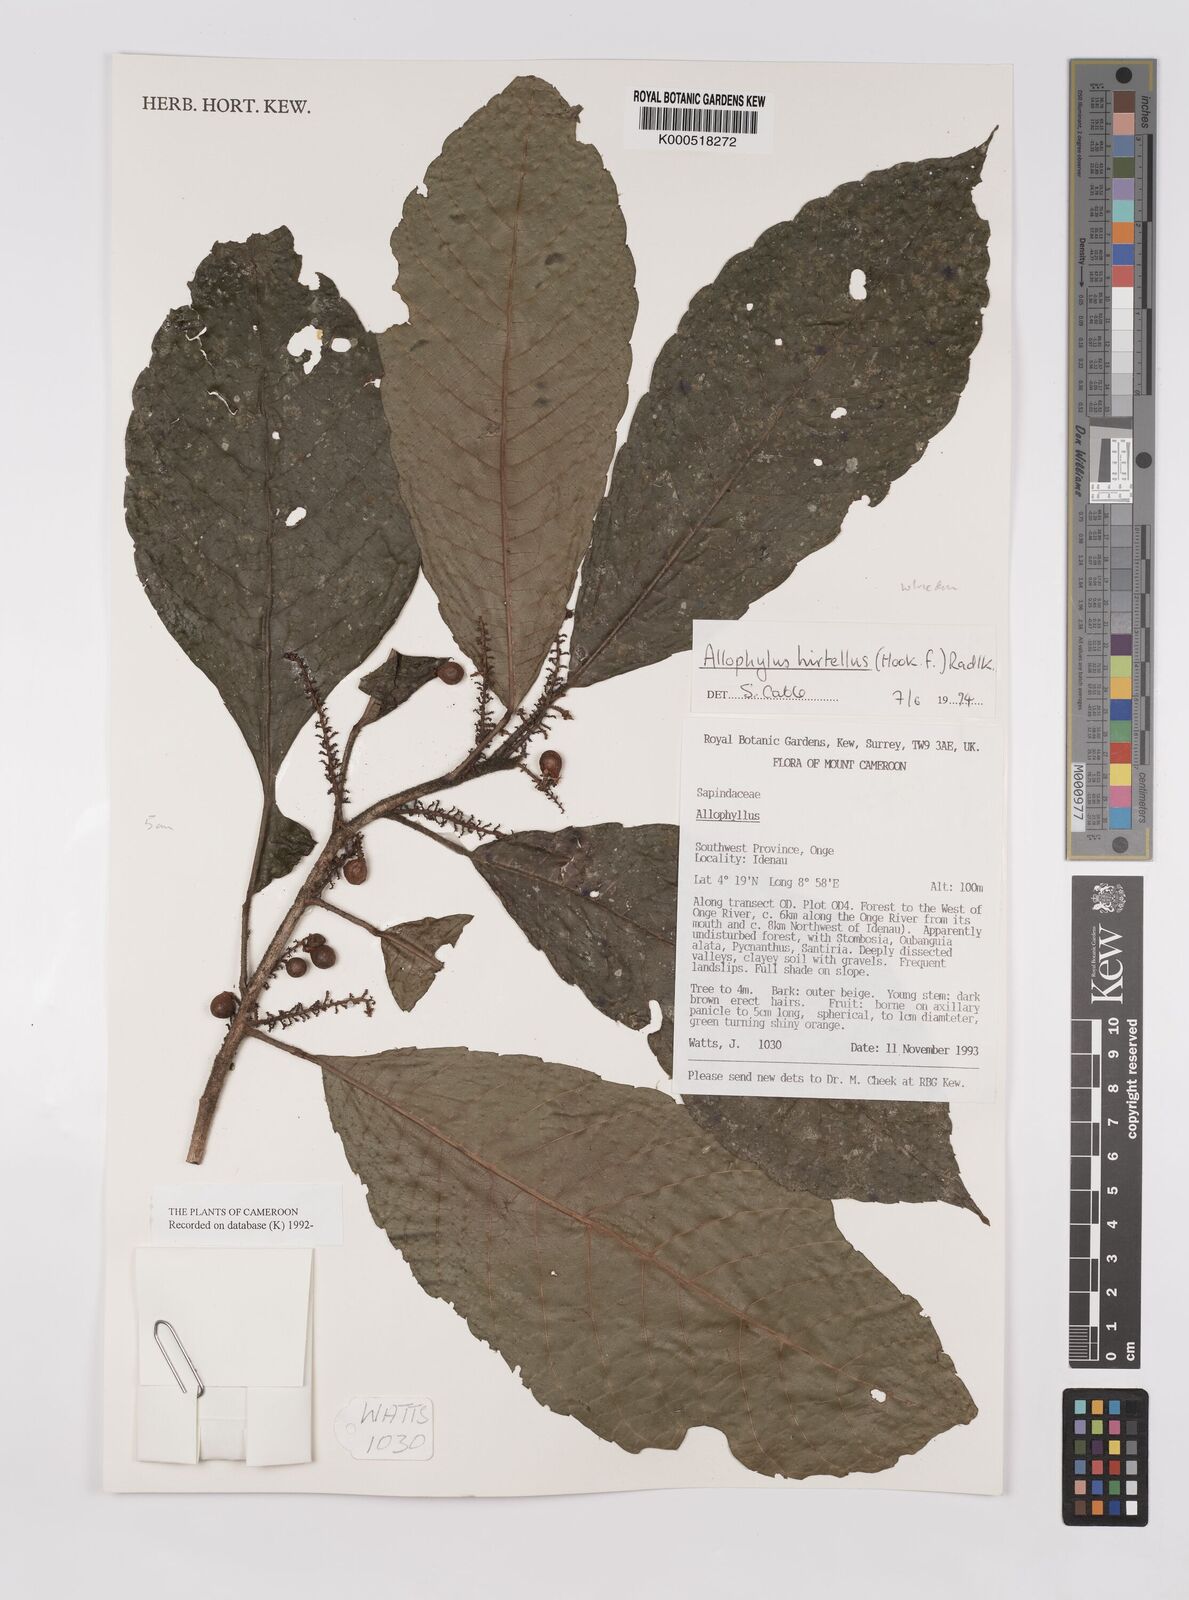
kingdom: Plantae
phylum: Tracheophyta
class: Magnoliopsida
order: Sapindales
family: Sapindaceae
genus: Allophylus
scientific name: Allophylus hirtellus
